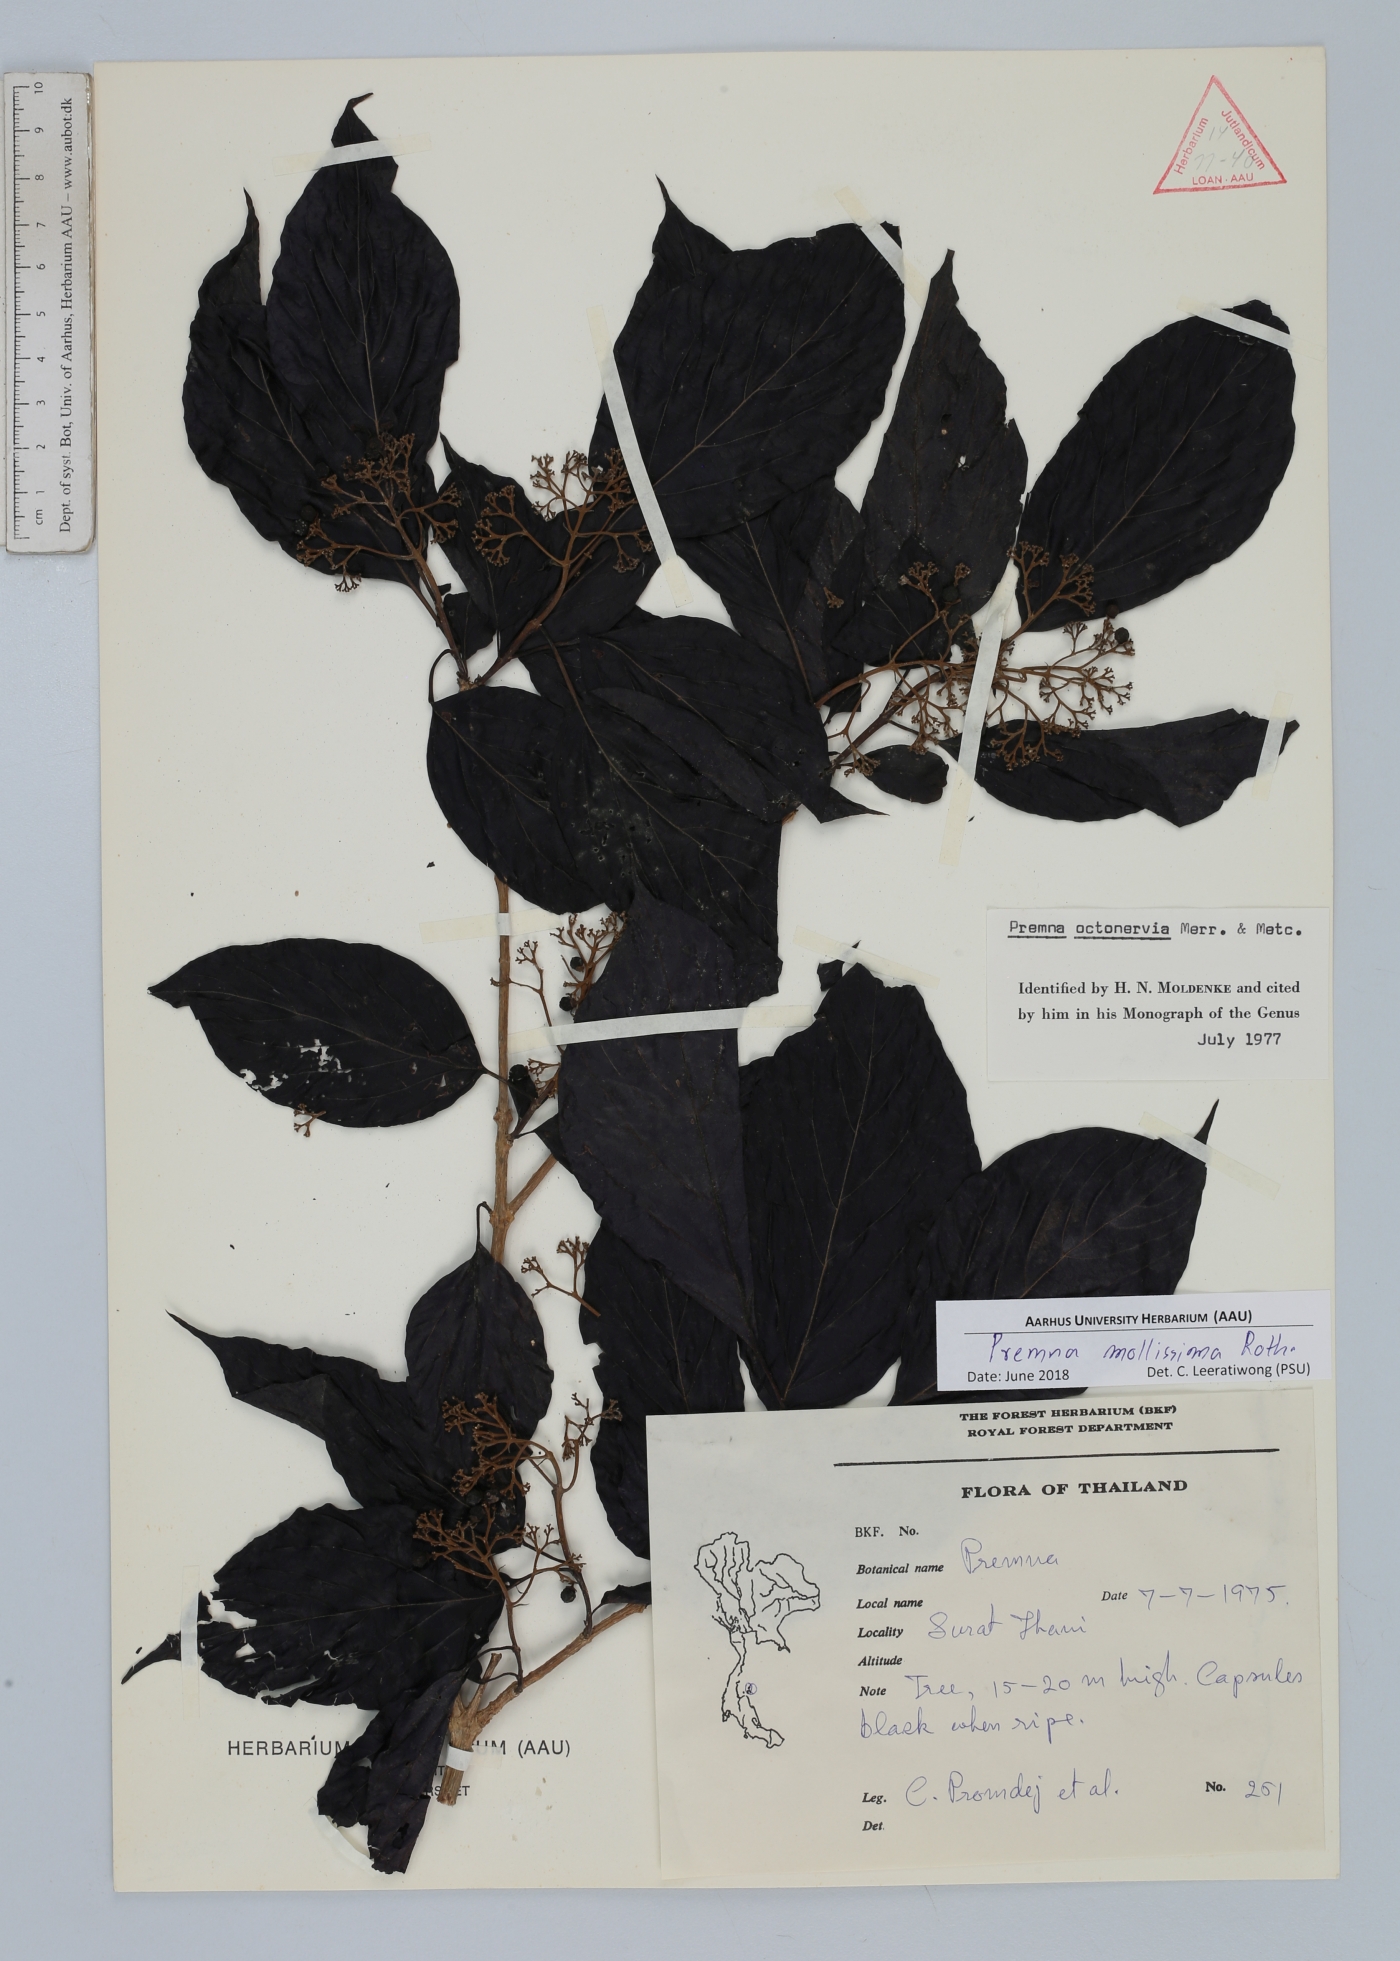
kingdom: Plantae
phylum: Tracheophyta
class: Magnoliopsida
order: Lamiales
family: Lamiaceae
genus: Premna
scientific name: Premna mollissima
